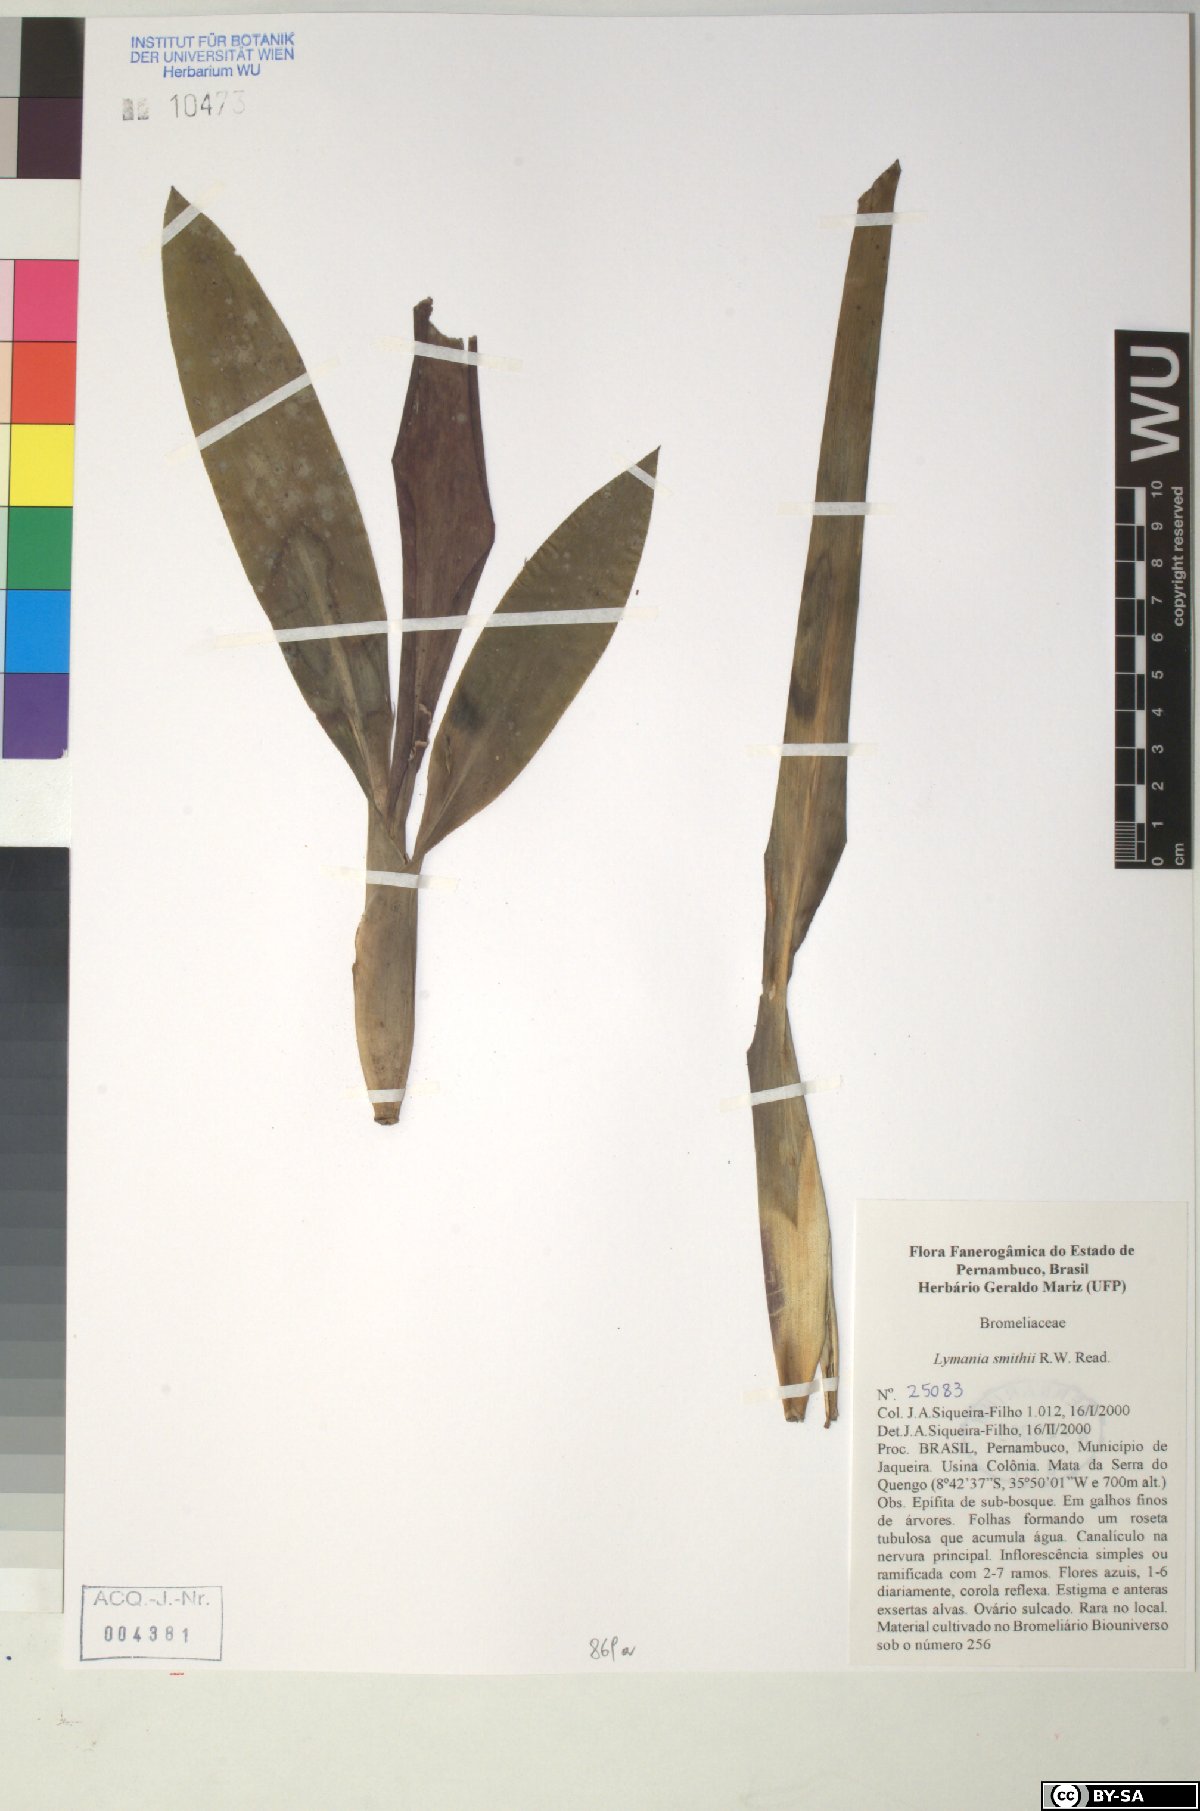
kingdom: Plantae
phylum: Tracheophyta
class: Liliopsida
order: Poales
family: Bromeliaceae
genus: Lymania
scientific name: Lymania smithii
